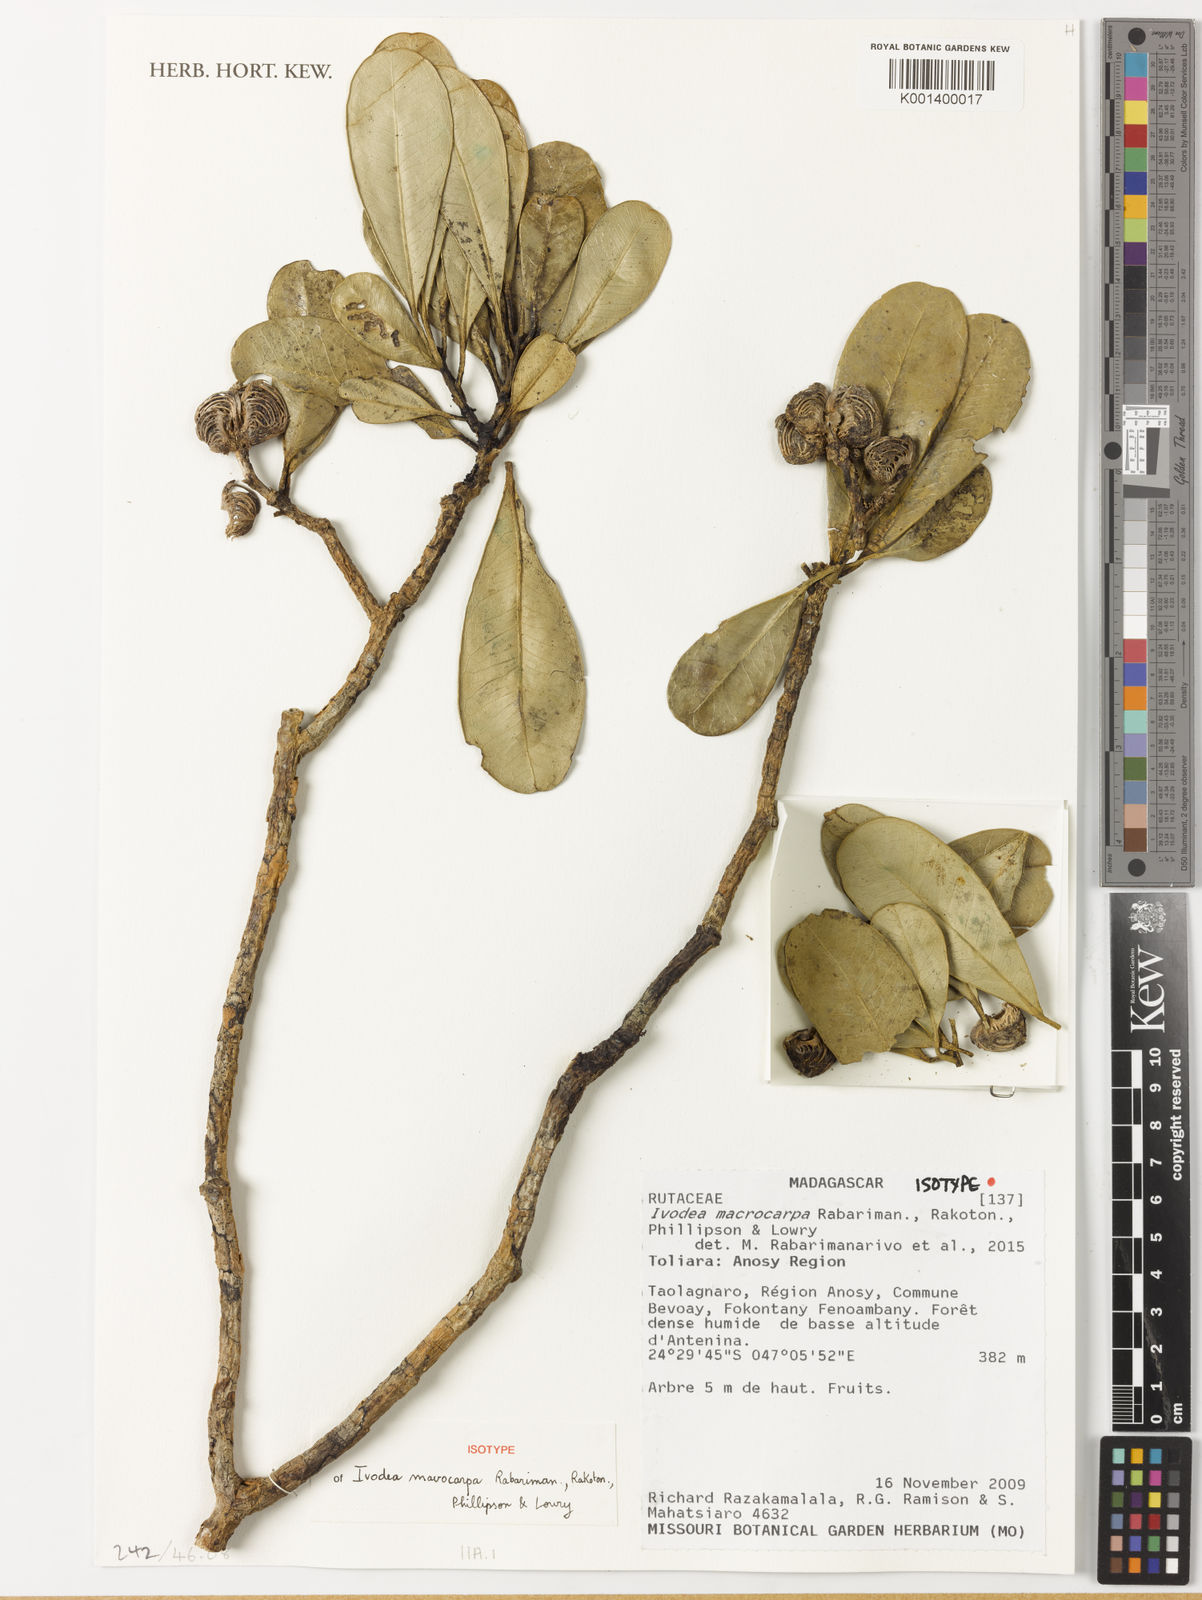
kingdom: Plantae
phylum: Tracheophyta
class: Magnoliopsida
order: Sapindales
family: Rutaceae
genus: Ivodea
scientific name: Ivodea macrocarpa
